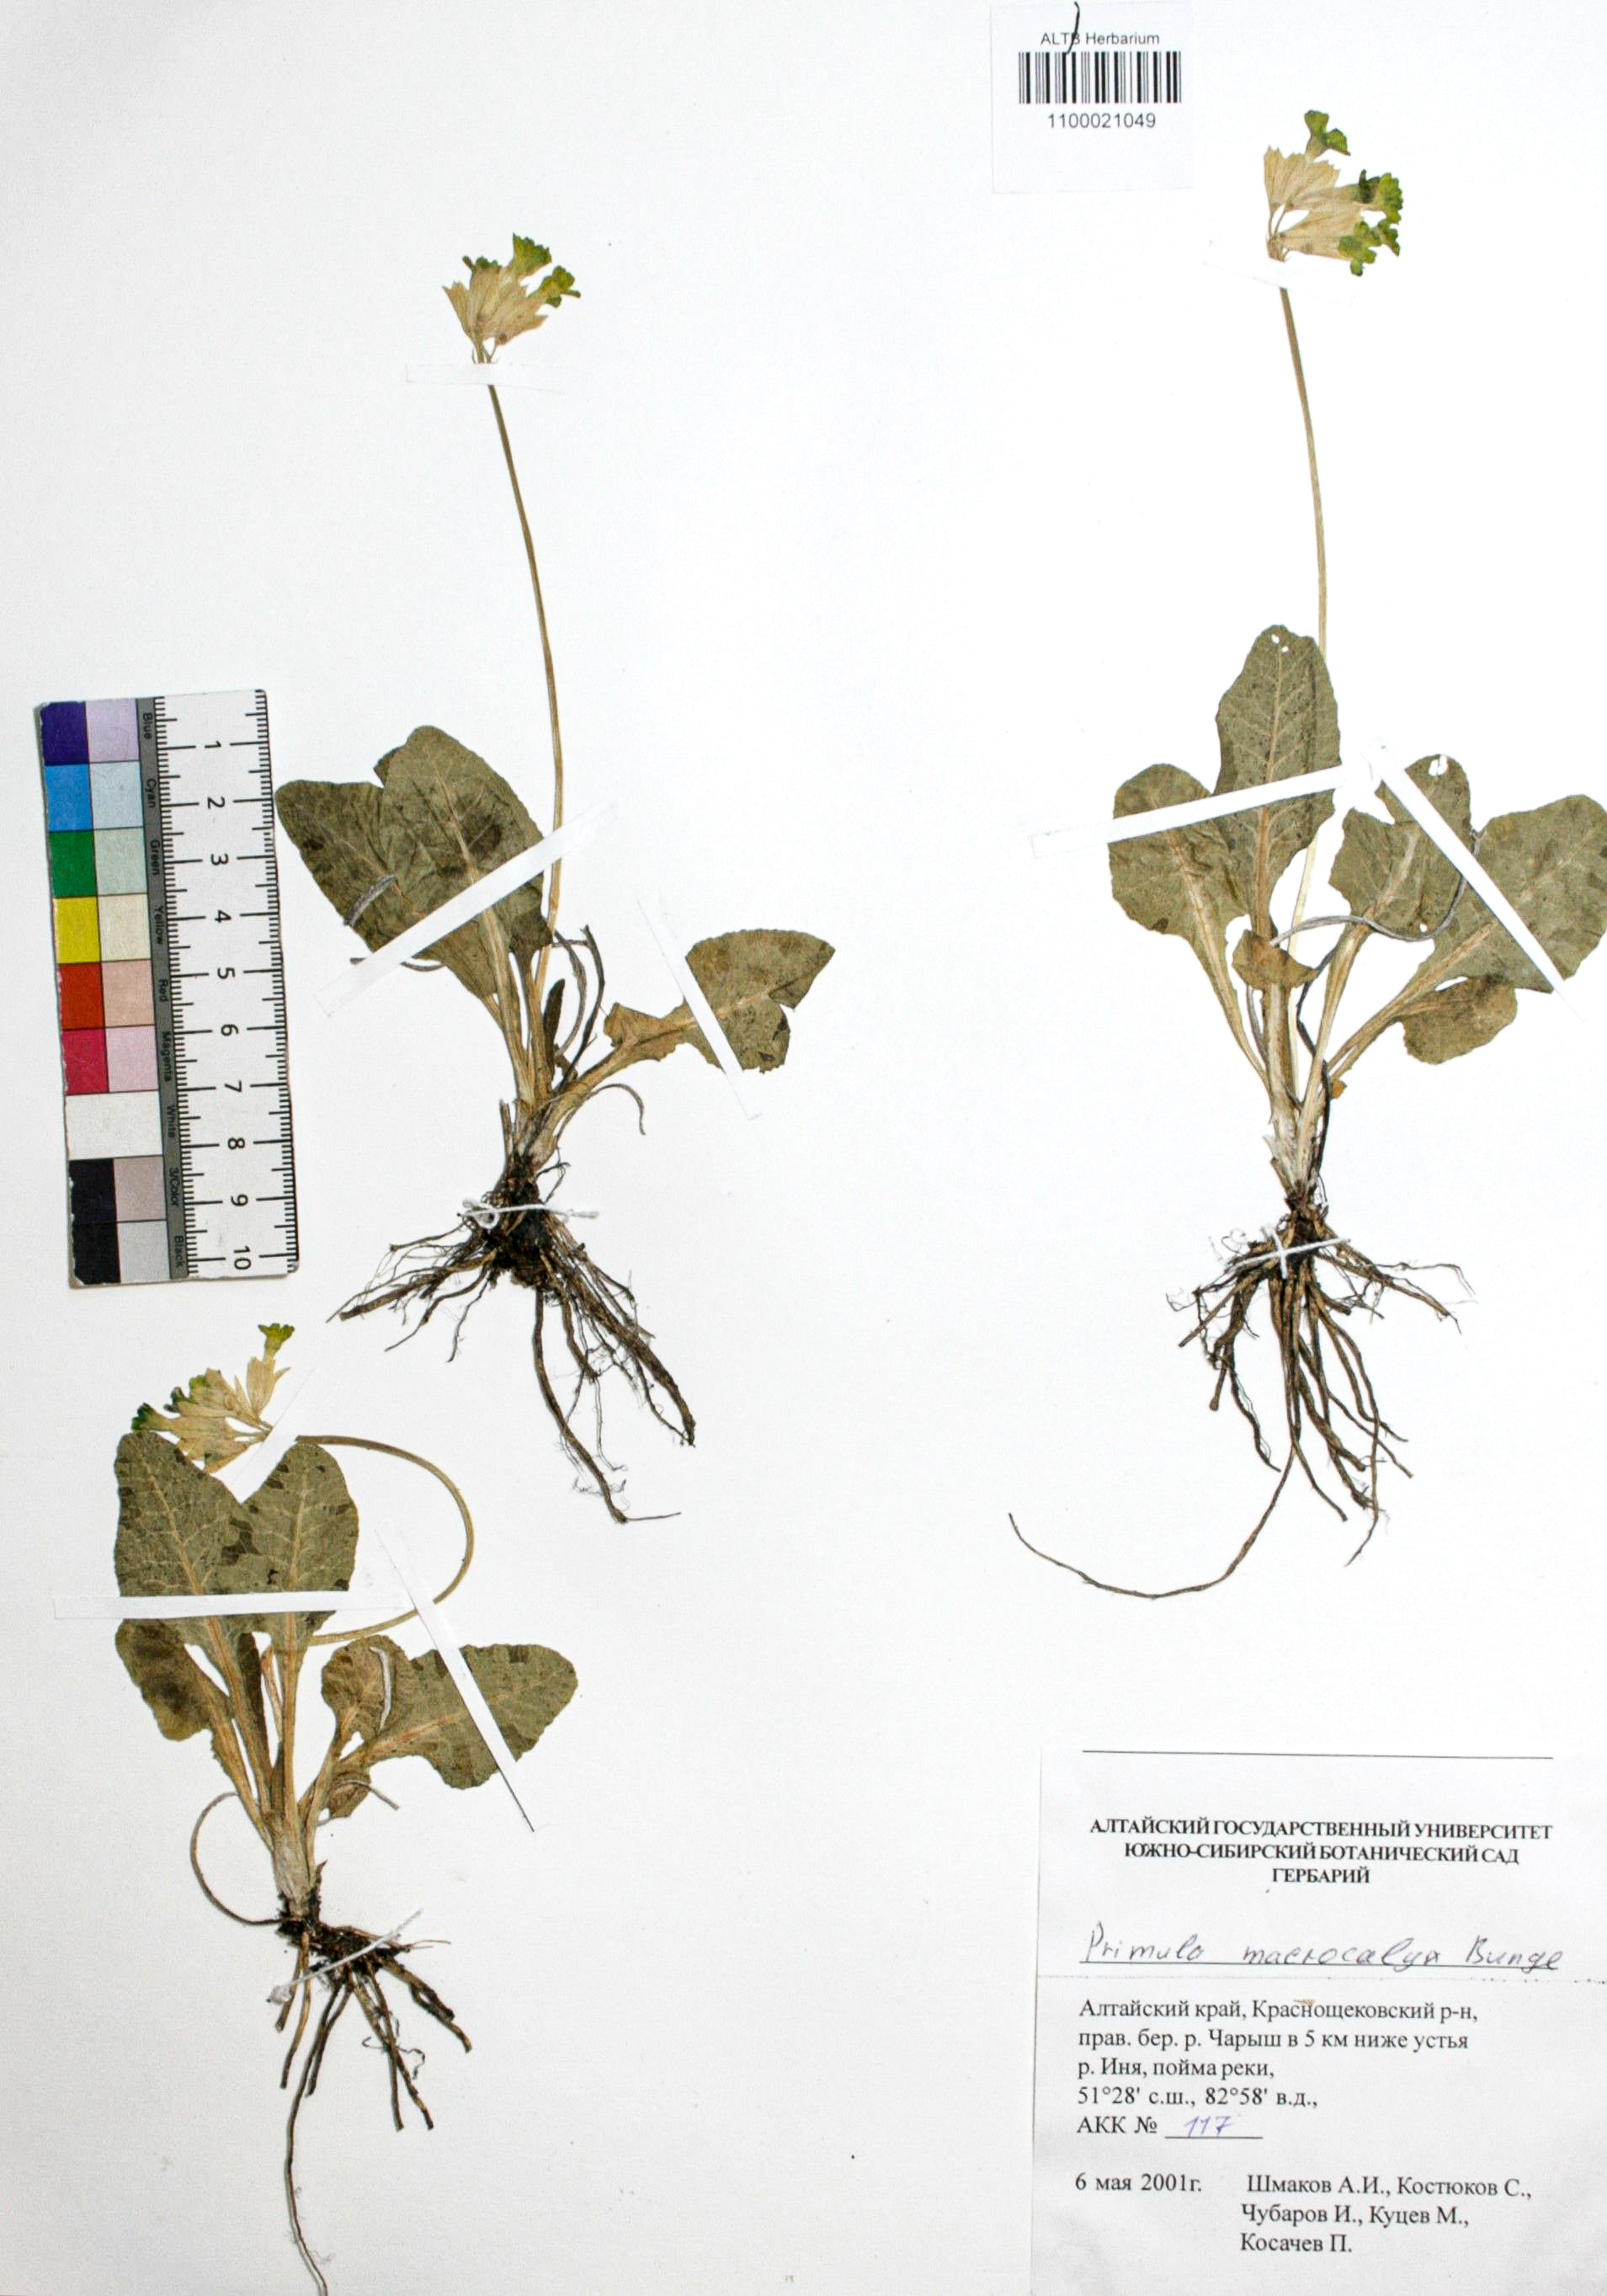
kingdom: Plantae
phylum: Tracheophyta
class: Magnoliopsida
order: Ericales
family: Primulaceae
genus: Primula
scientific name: Primula veris
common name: Cowslip
